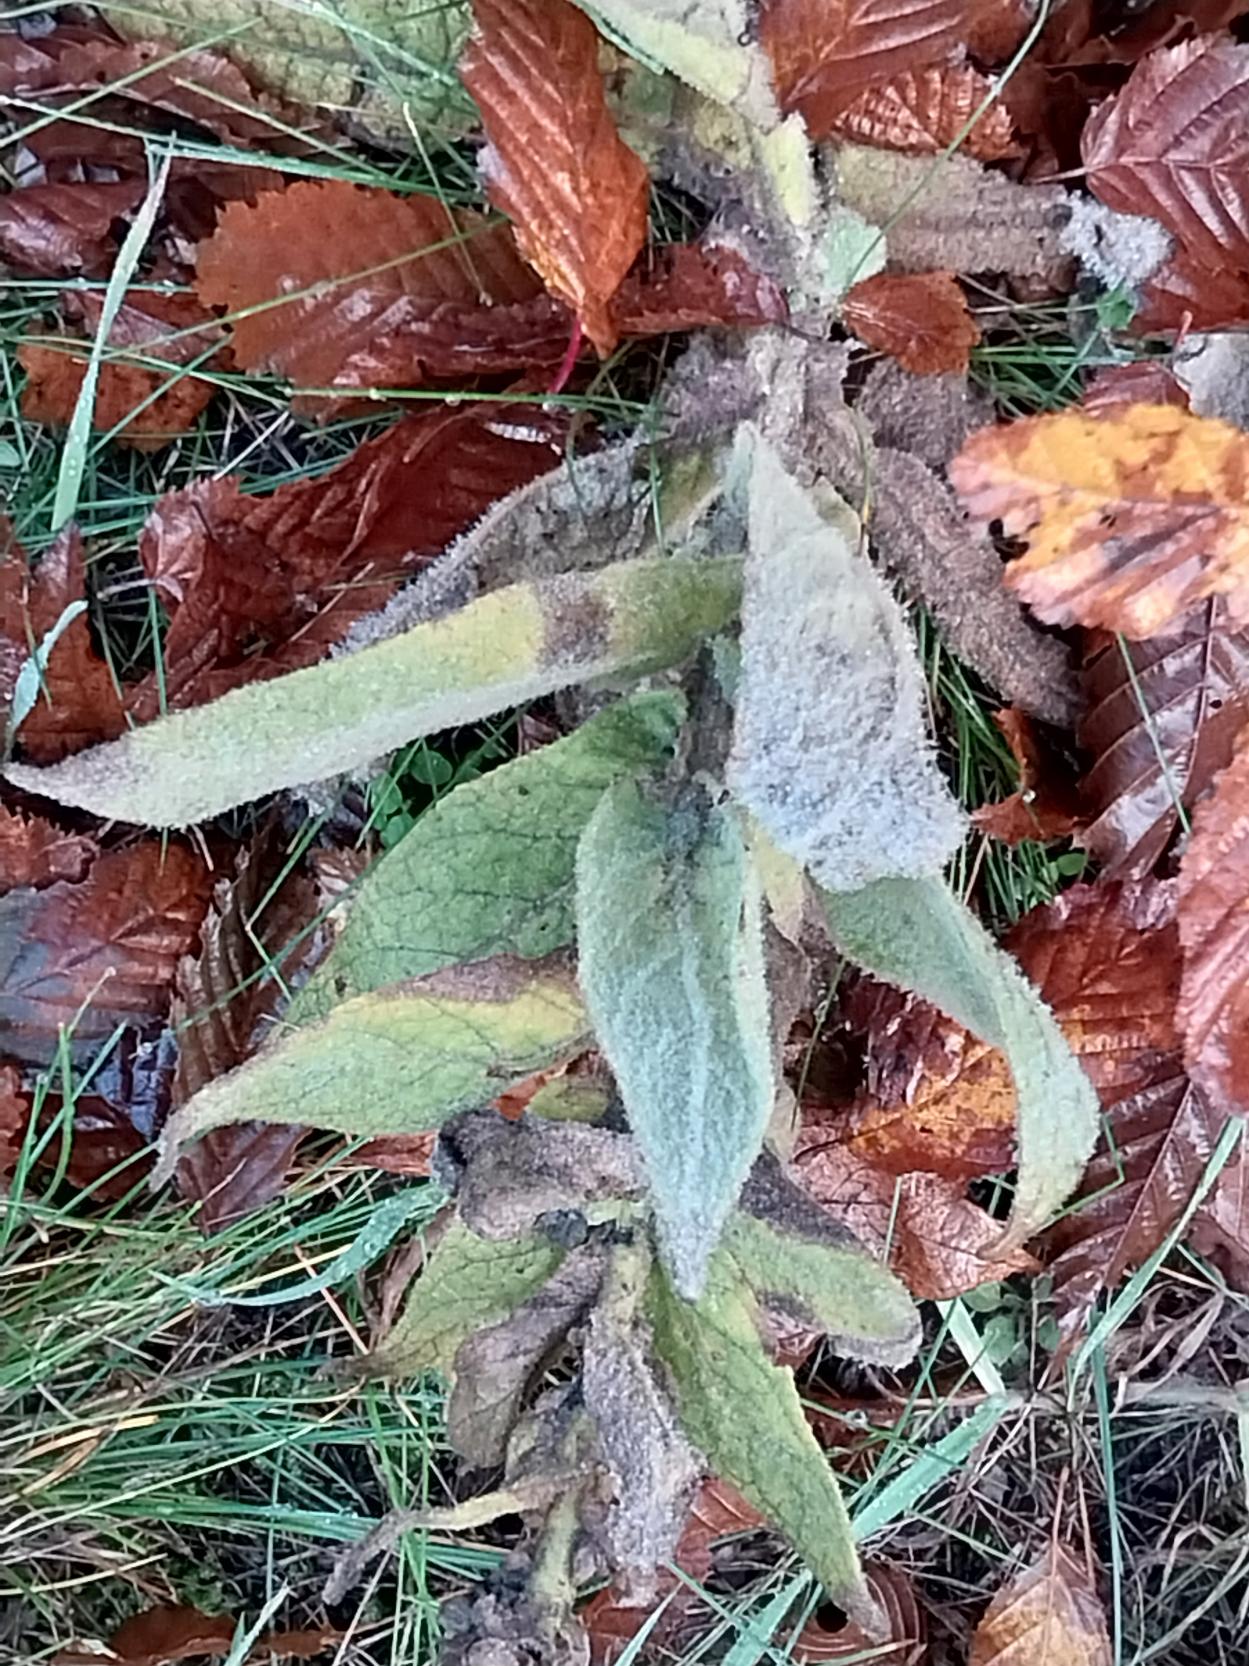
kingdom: Plantae
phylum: Tracheophyta
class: Magnoliopsida
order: Lamiales
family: Scrophulariaceae
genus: Verbascum
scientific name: Verbascum densiflorum
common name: Uldbladet kongelys
